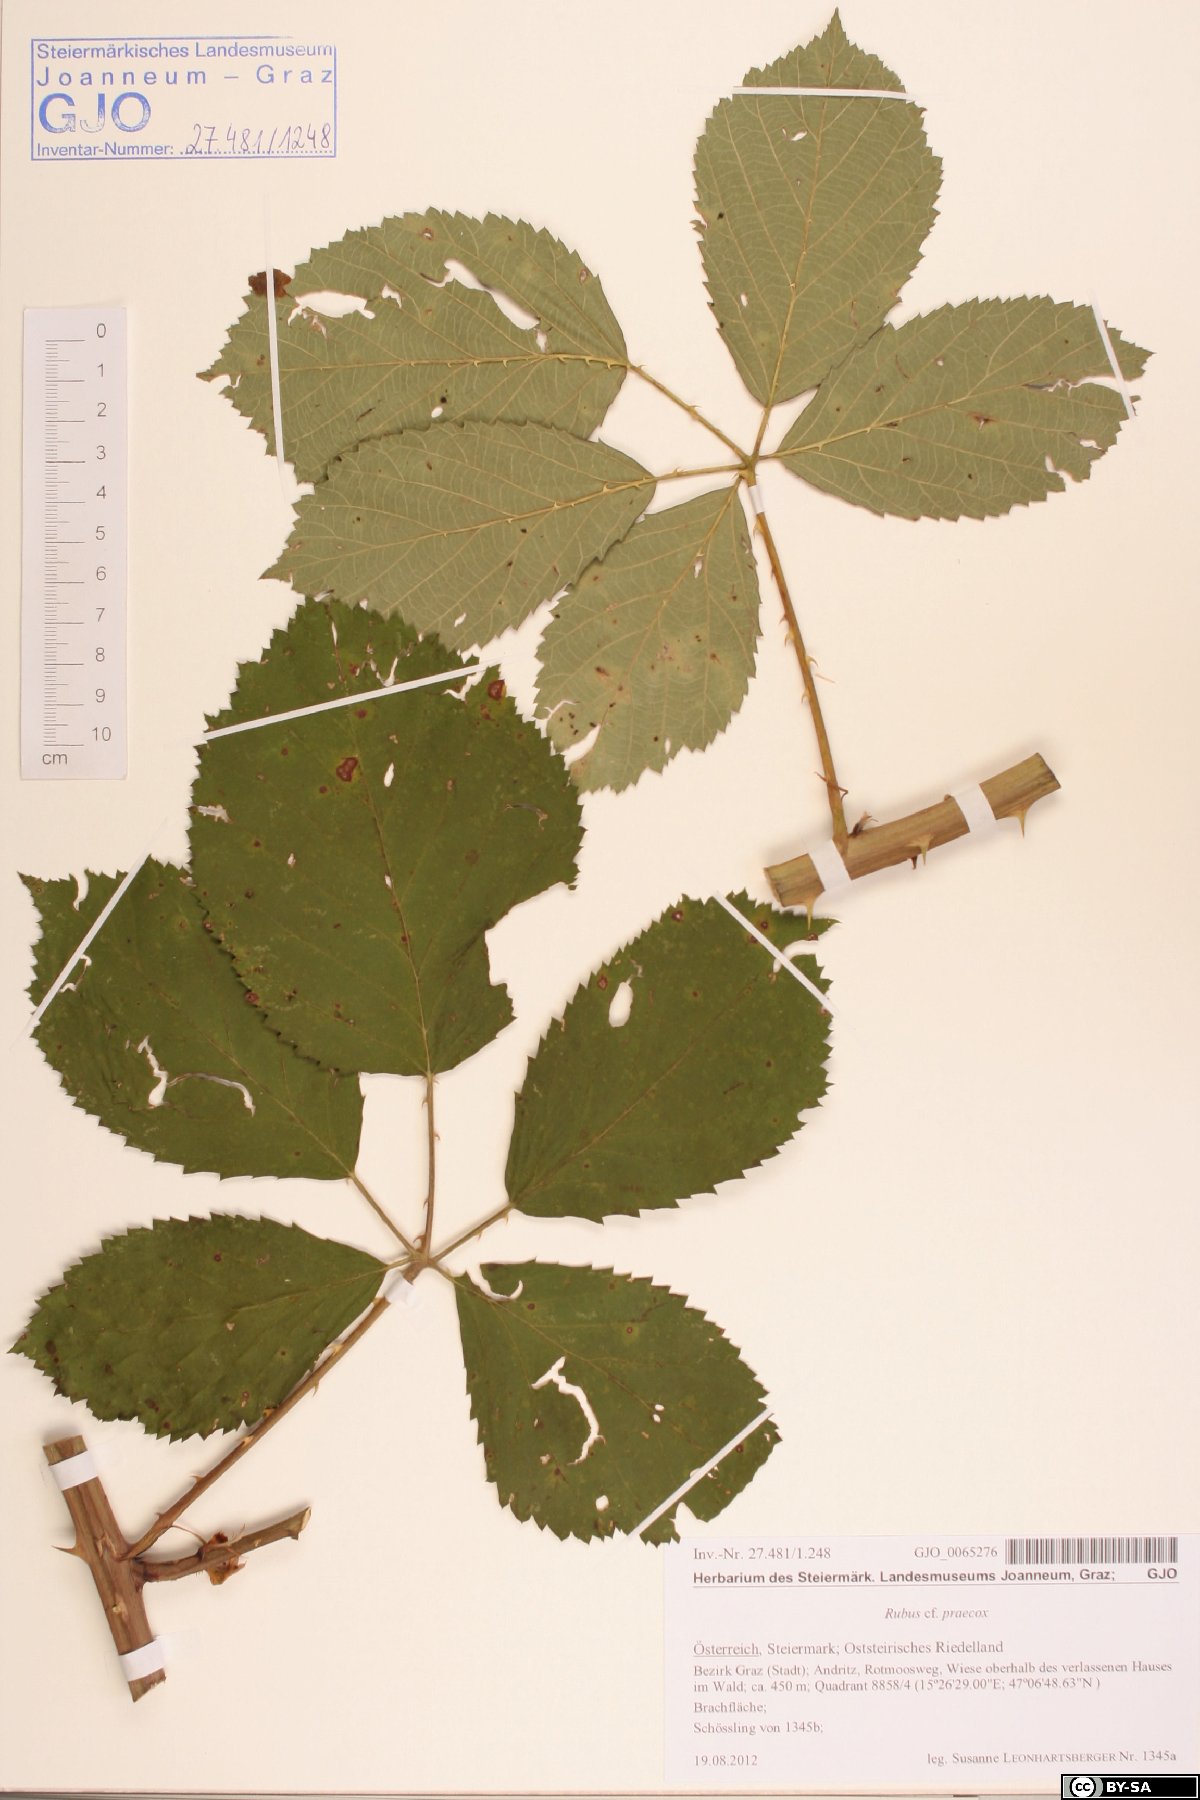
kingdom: Plantae
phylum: Tracheophyta
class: Magnoliopsida
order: Rosales
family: Rosaceae
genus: Rubus
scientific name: Rubus sulcatus
